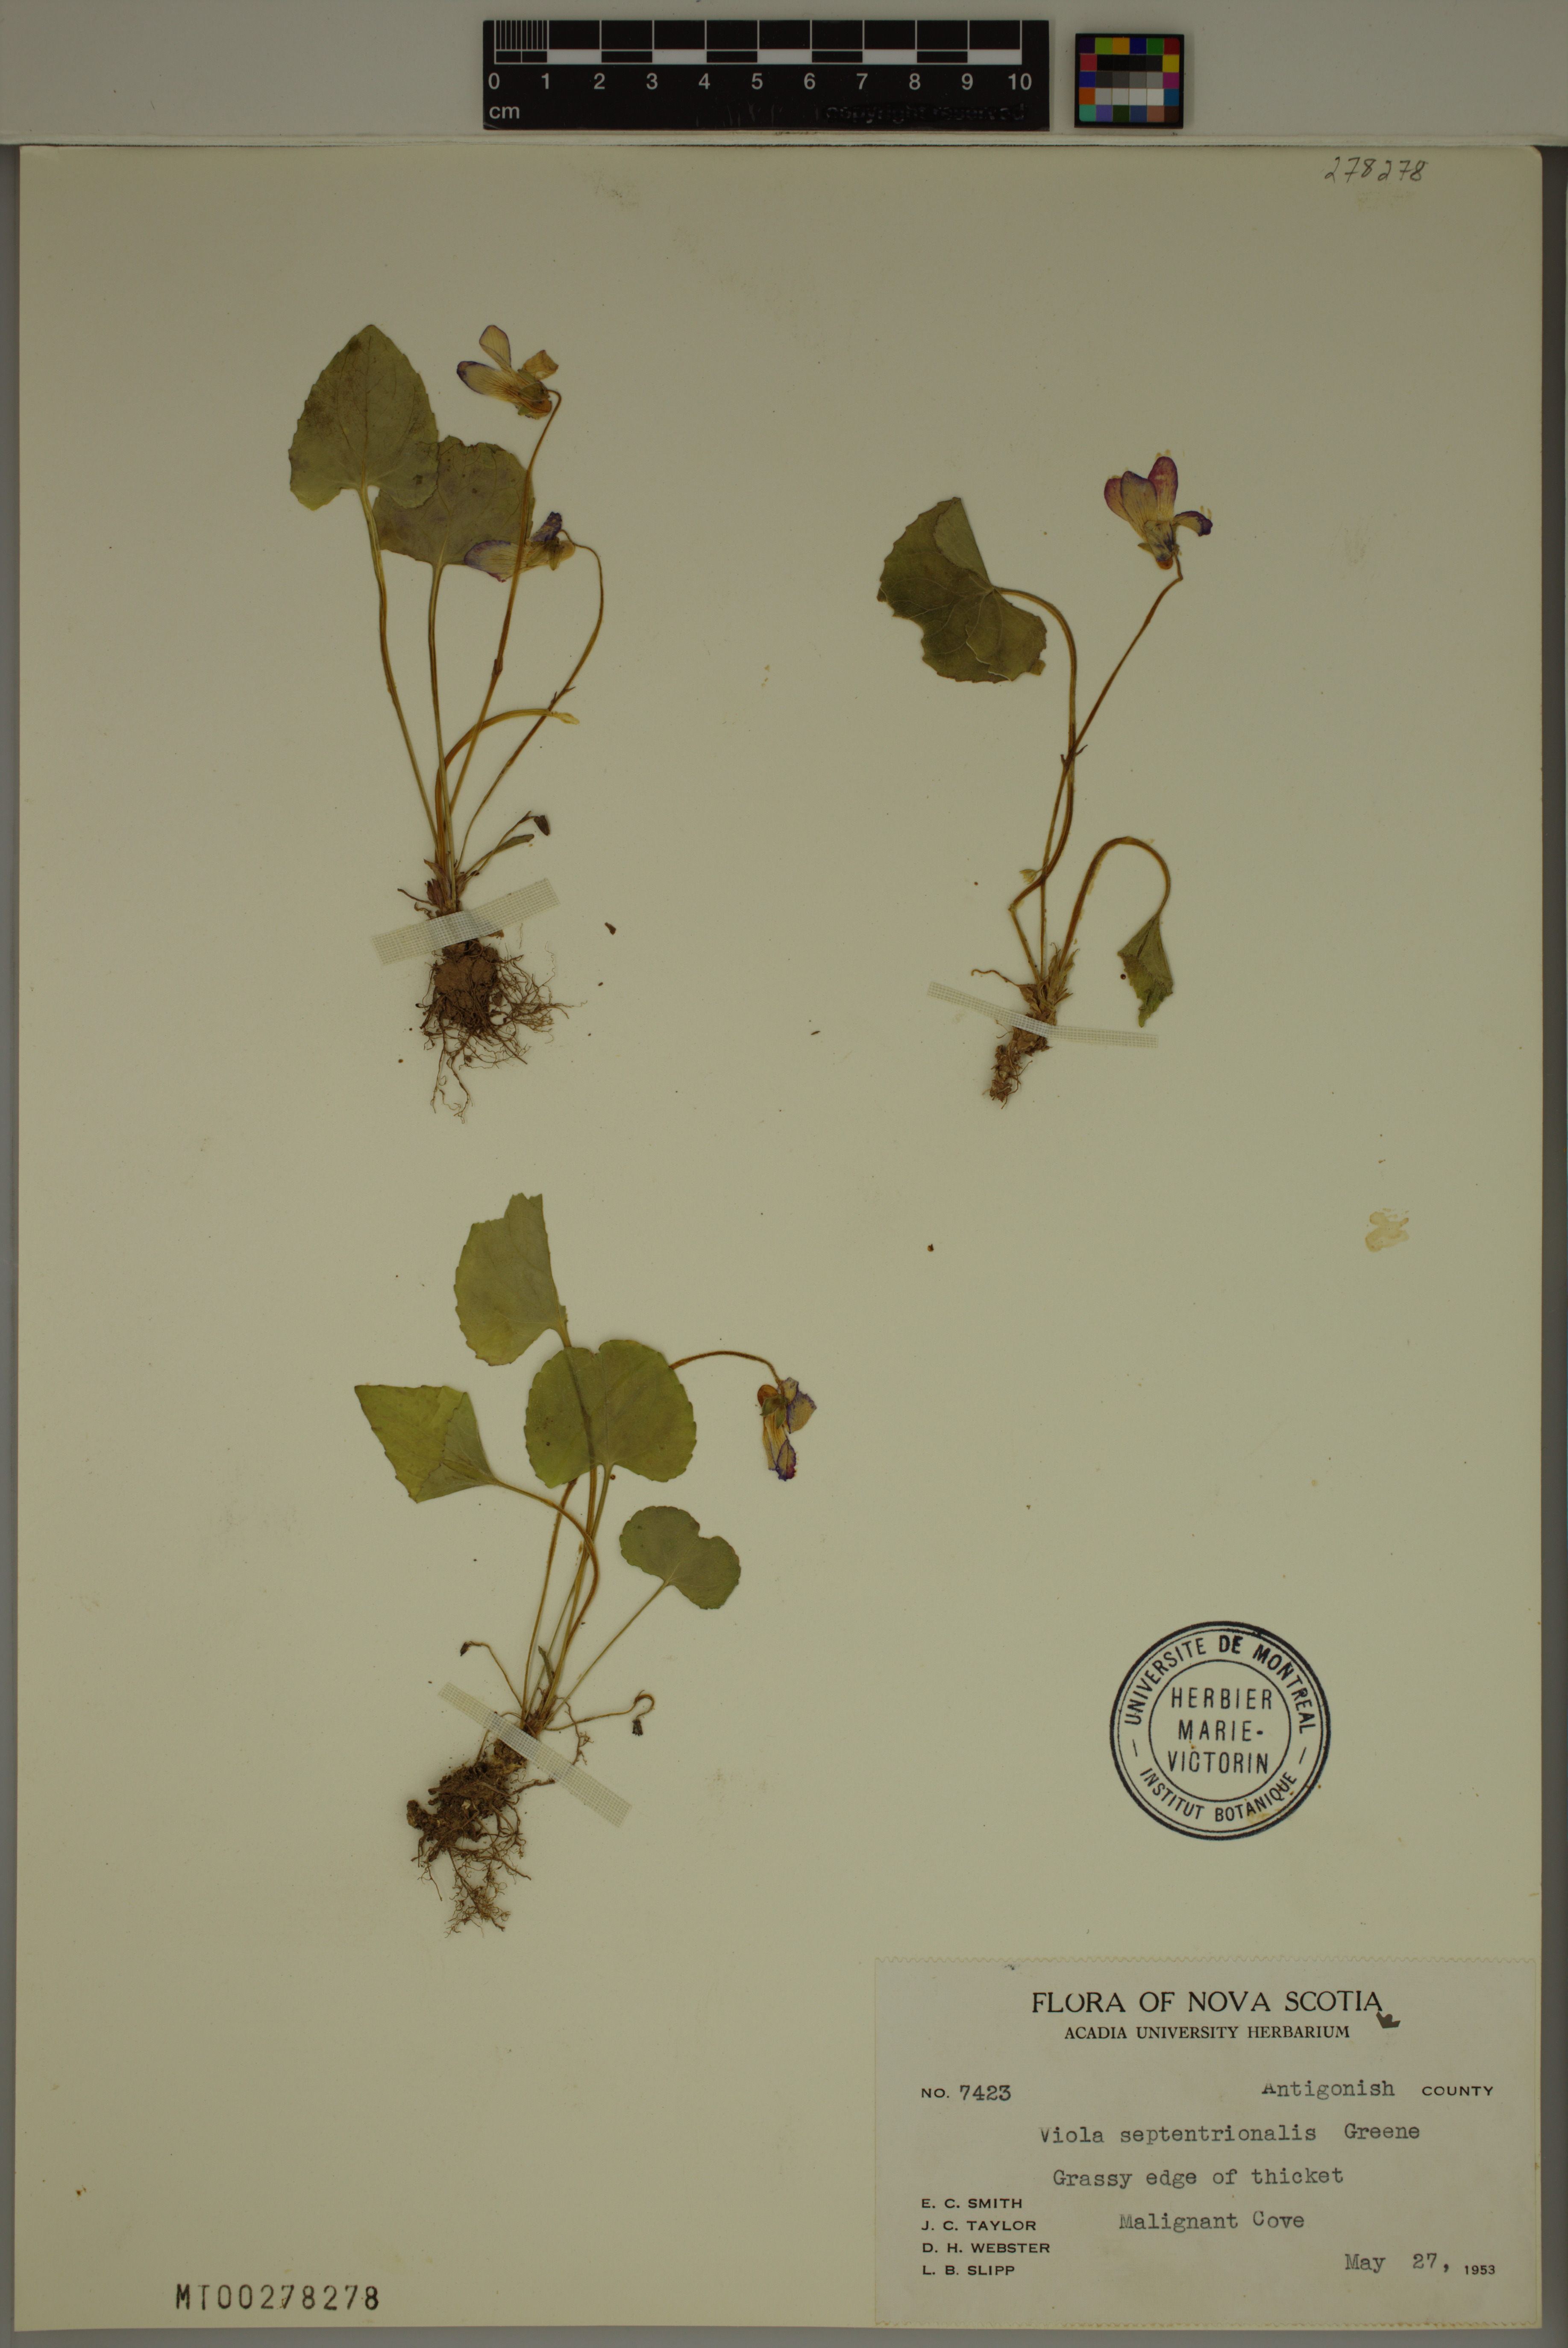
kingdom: Plantae
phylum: Tracheophyta
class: Magnoliopsida
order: Malpighiales
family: Violaceae
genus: Viola
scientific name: Viola septentrionalis
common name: Northern woodland violet
